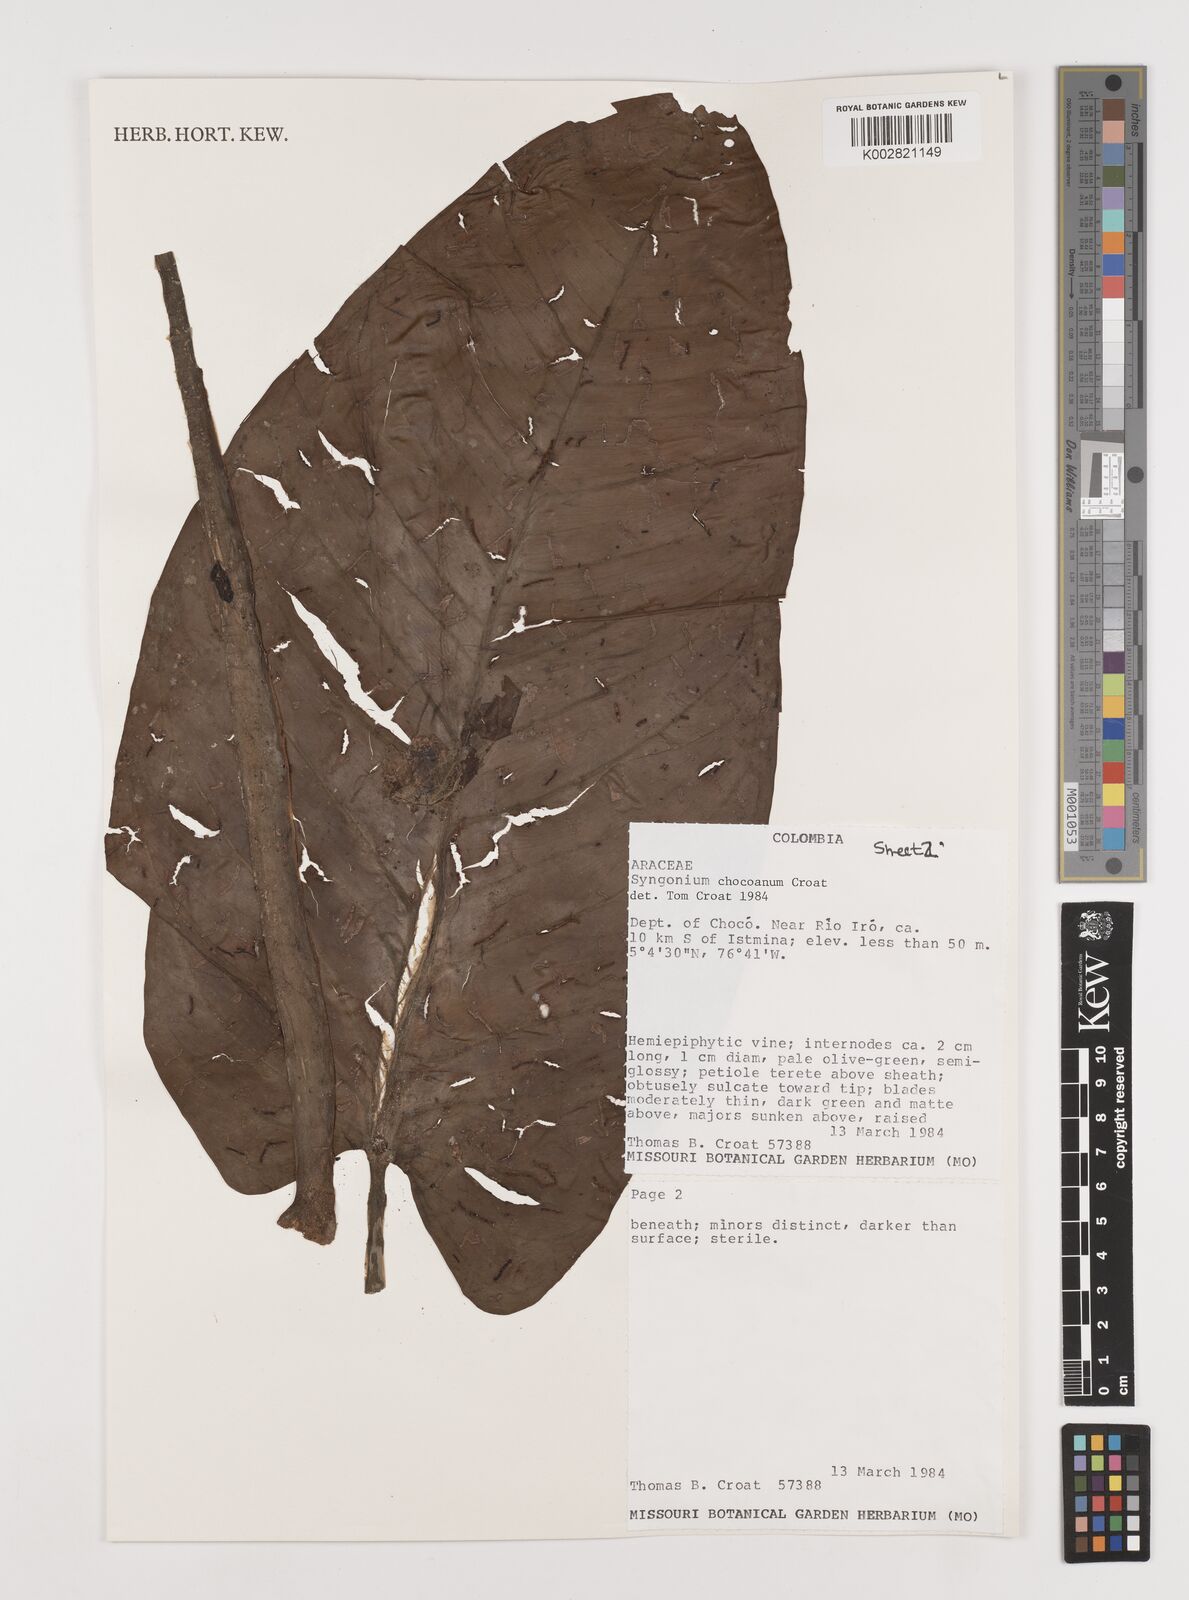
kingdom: Plantae
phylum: Tracheophyta
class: Liliopsida
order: Alismatales
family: Araceae
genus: Syngonium
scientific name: Syngonium chocoanum
